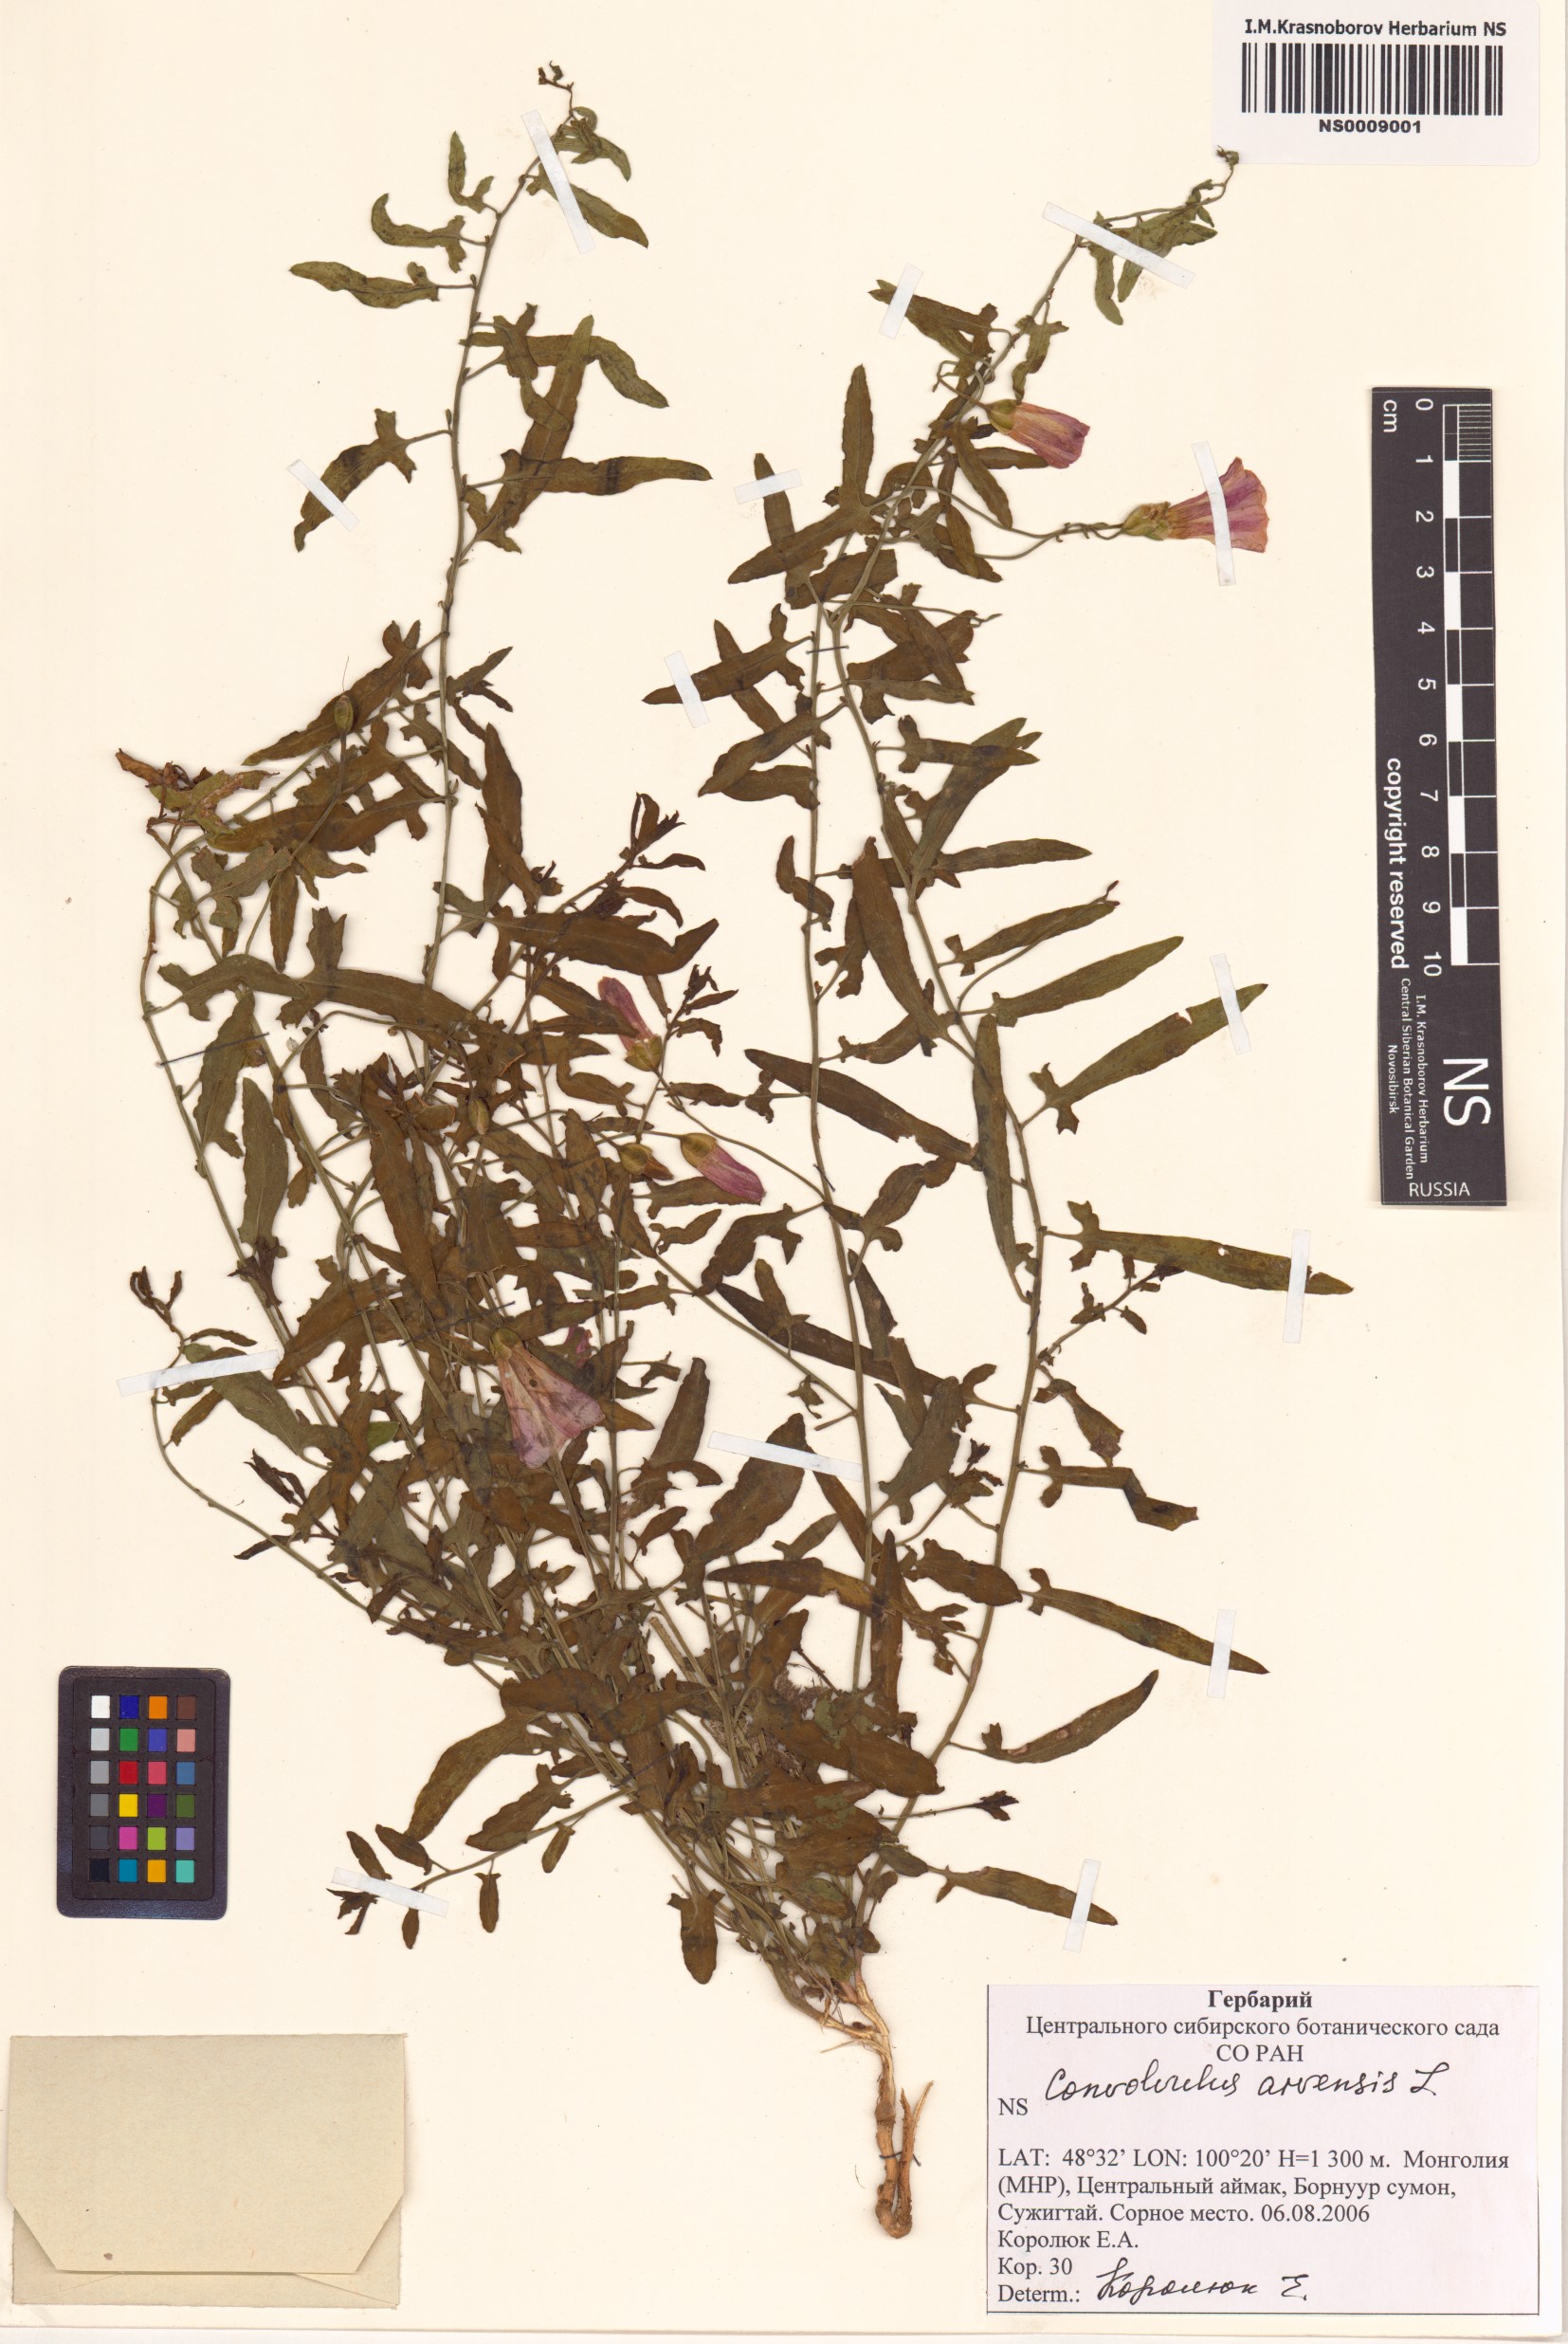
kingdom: Plantae
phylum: Tracheophyta
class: Magnoliopsida
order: Solanales
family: Convolvulaceae
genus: Convolvulus
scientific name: Convolvulus arvensis
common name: Field bindweed
